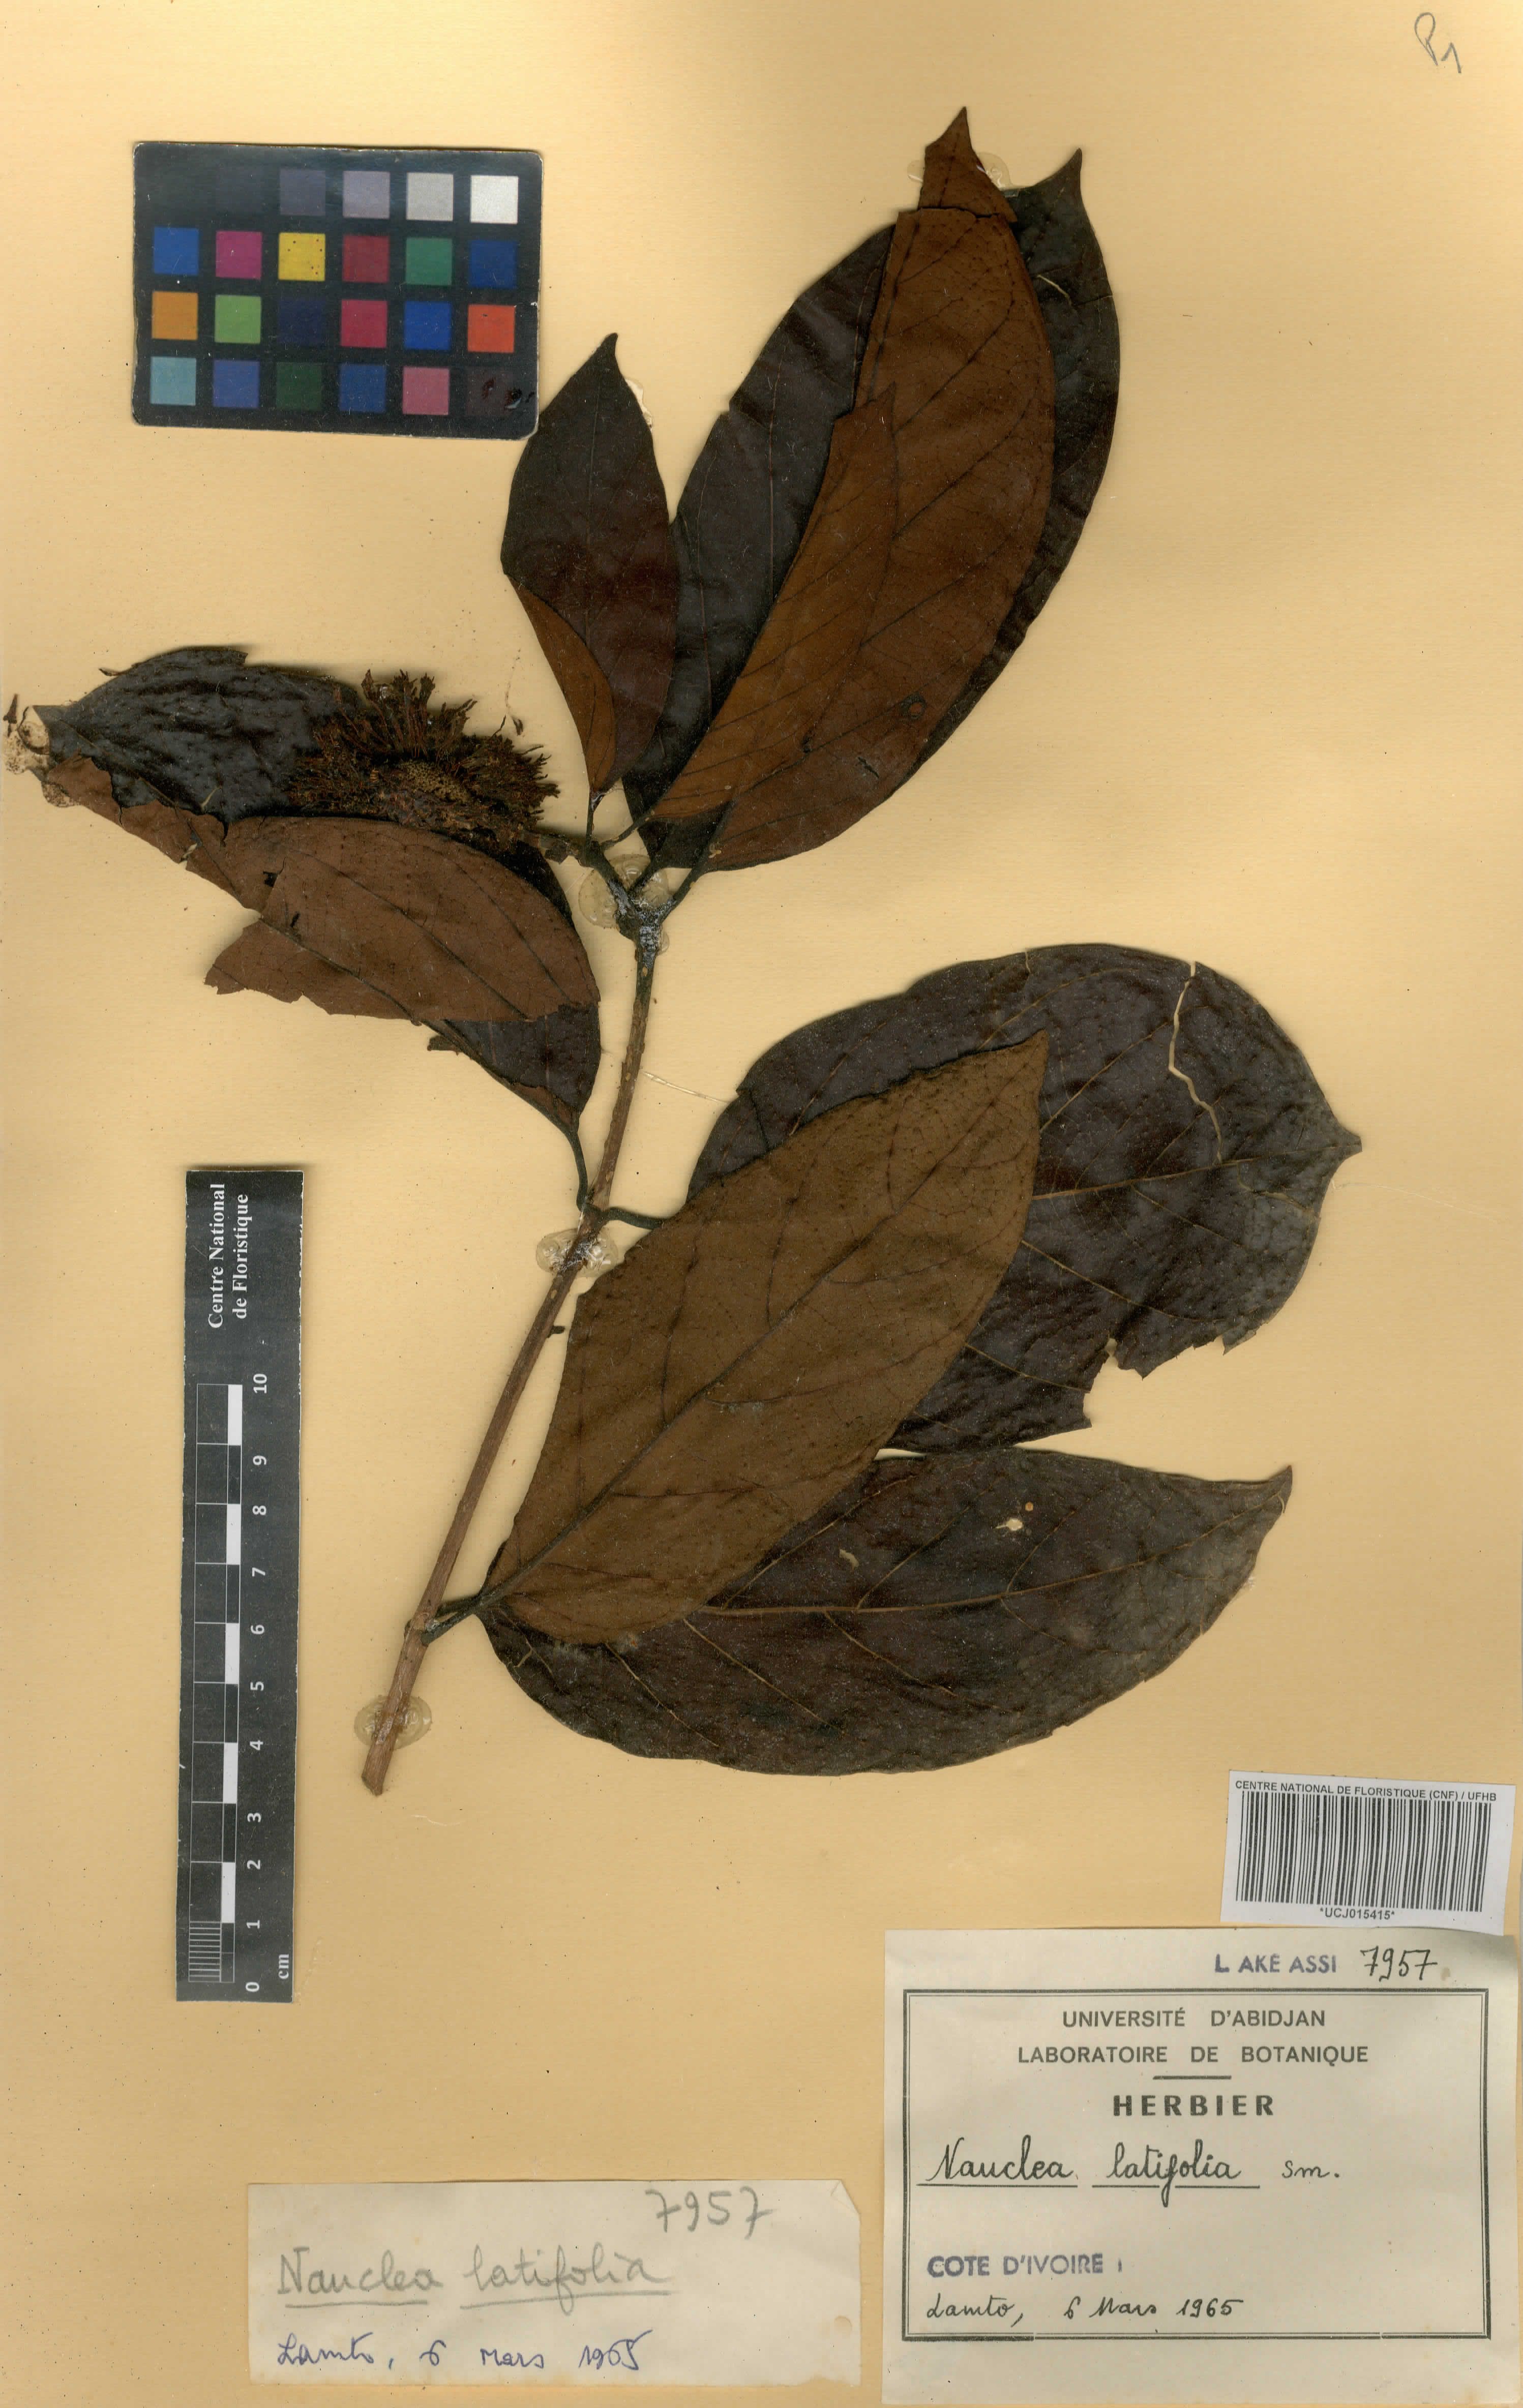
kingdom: Plantae
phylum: Tracheophyta
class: Magnoliopsida
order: Gentianales
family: Rubiaceae
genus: Nauclea
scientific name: Nauclea latifolia
